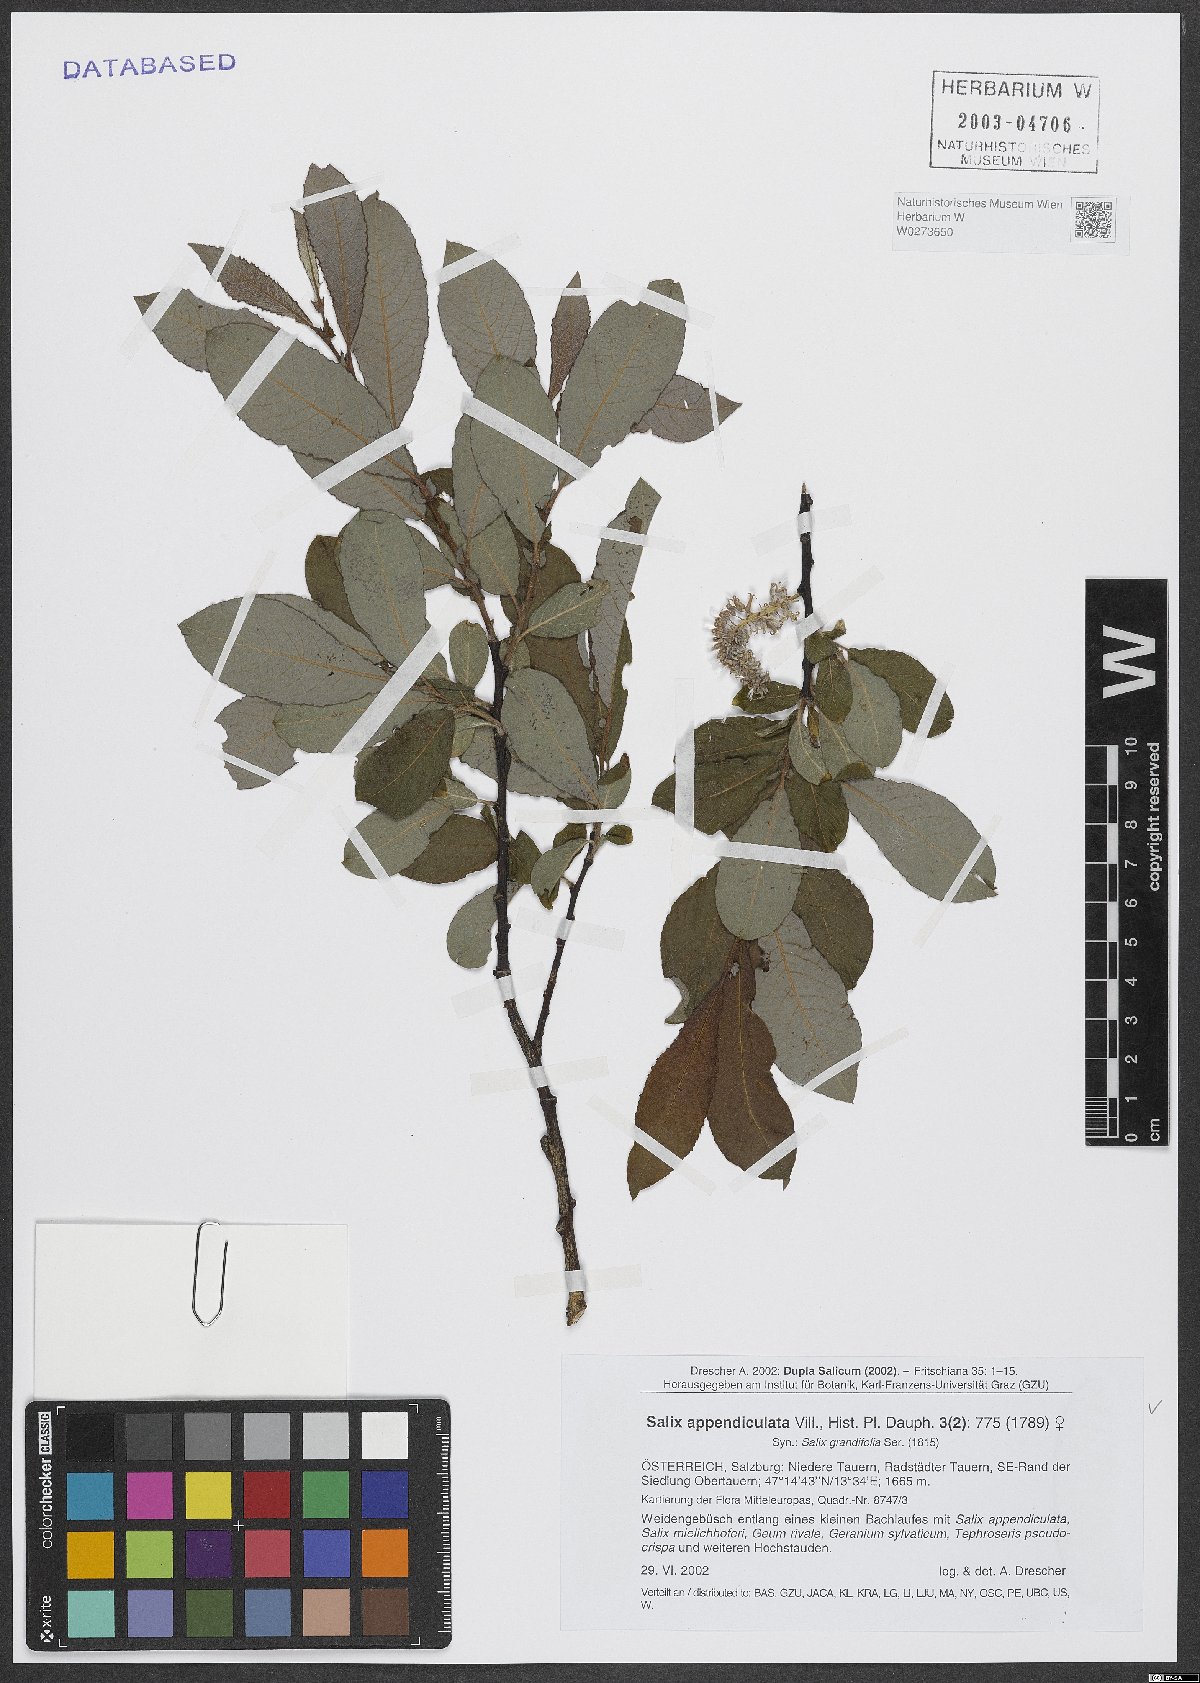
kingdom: Plantae
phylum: Tracheophyta
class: Magnoliopsida
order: Malpighiales
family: Salicaceae
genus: Salix
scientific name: Salix appendiculata
